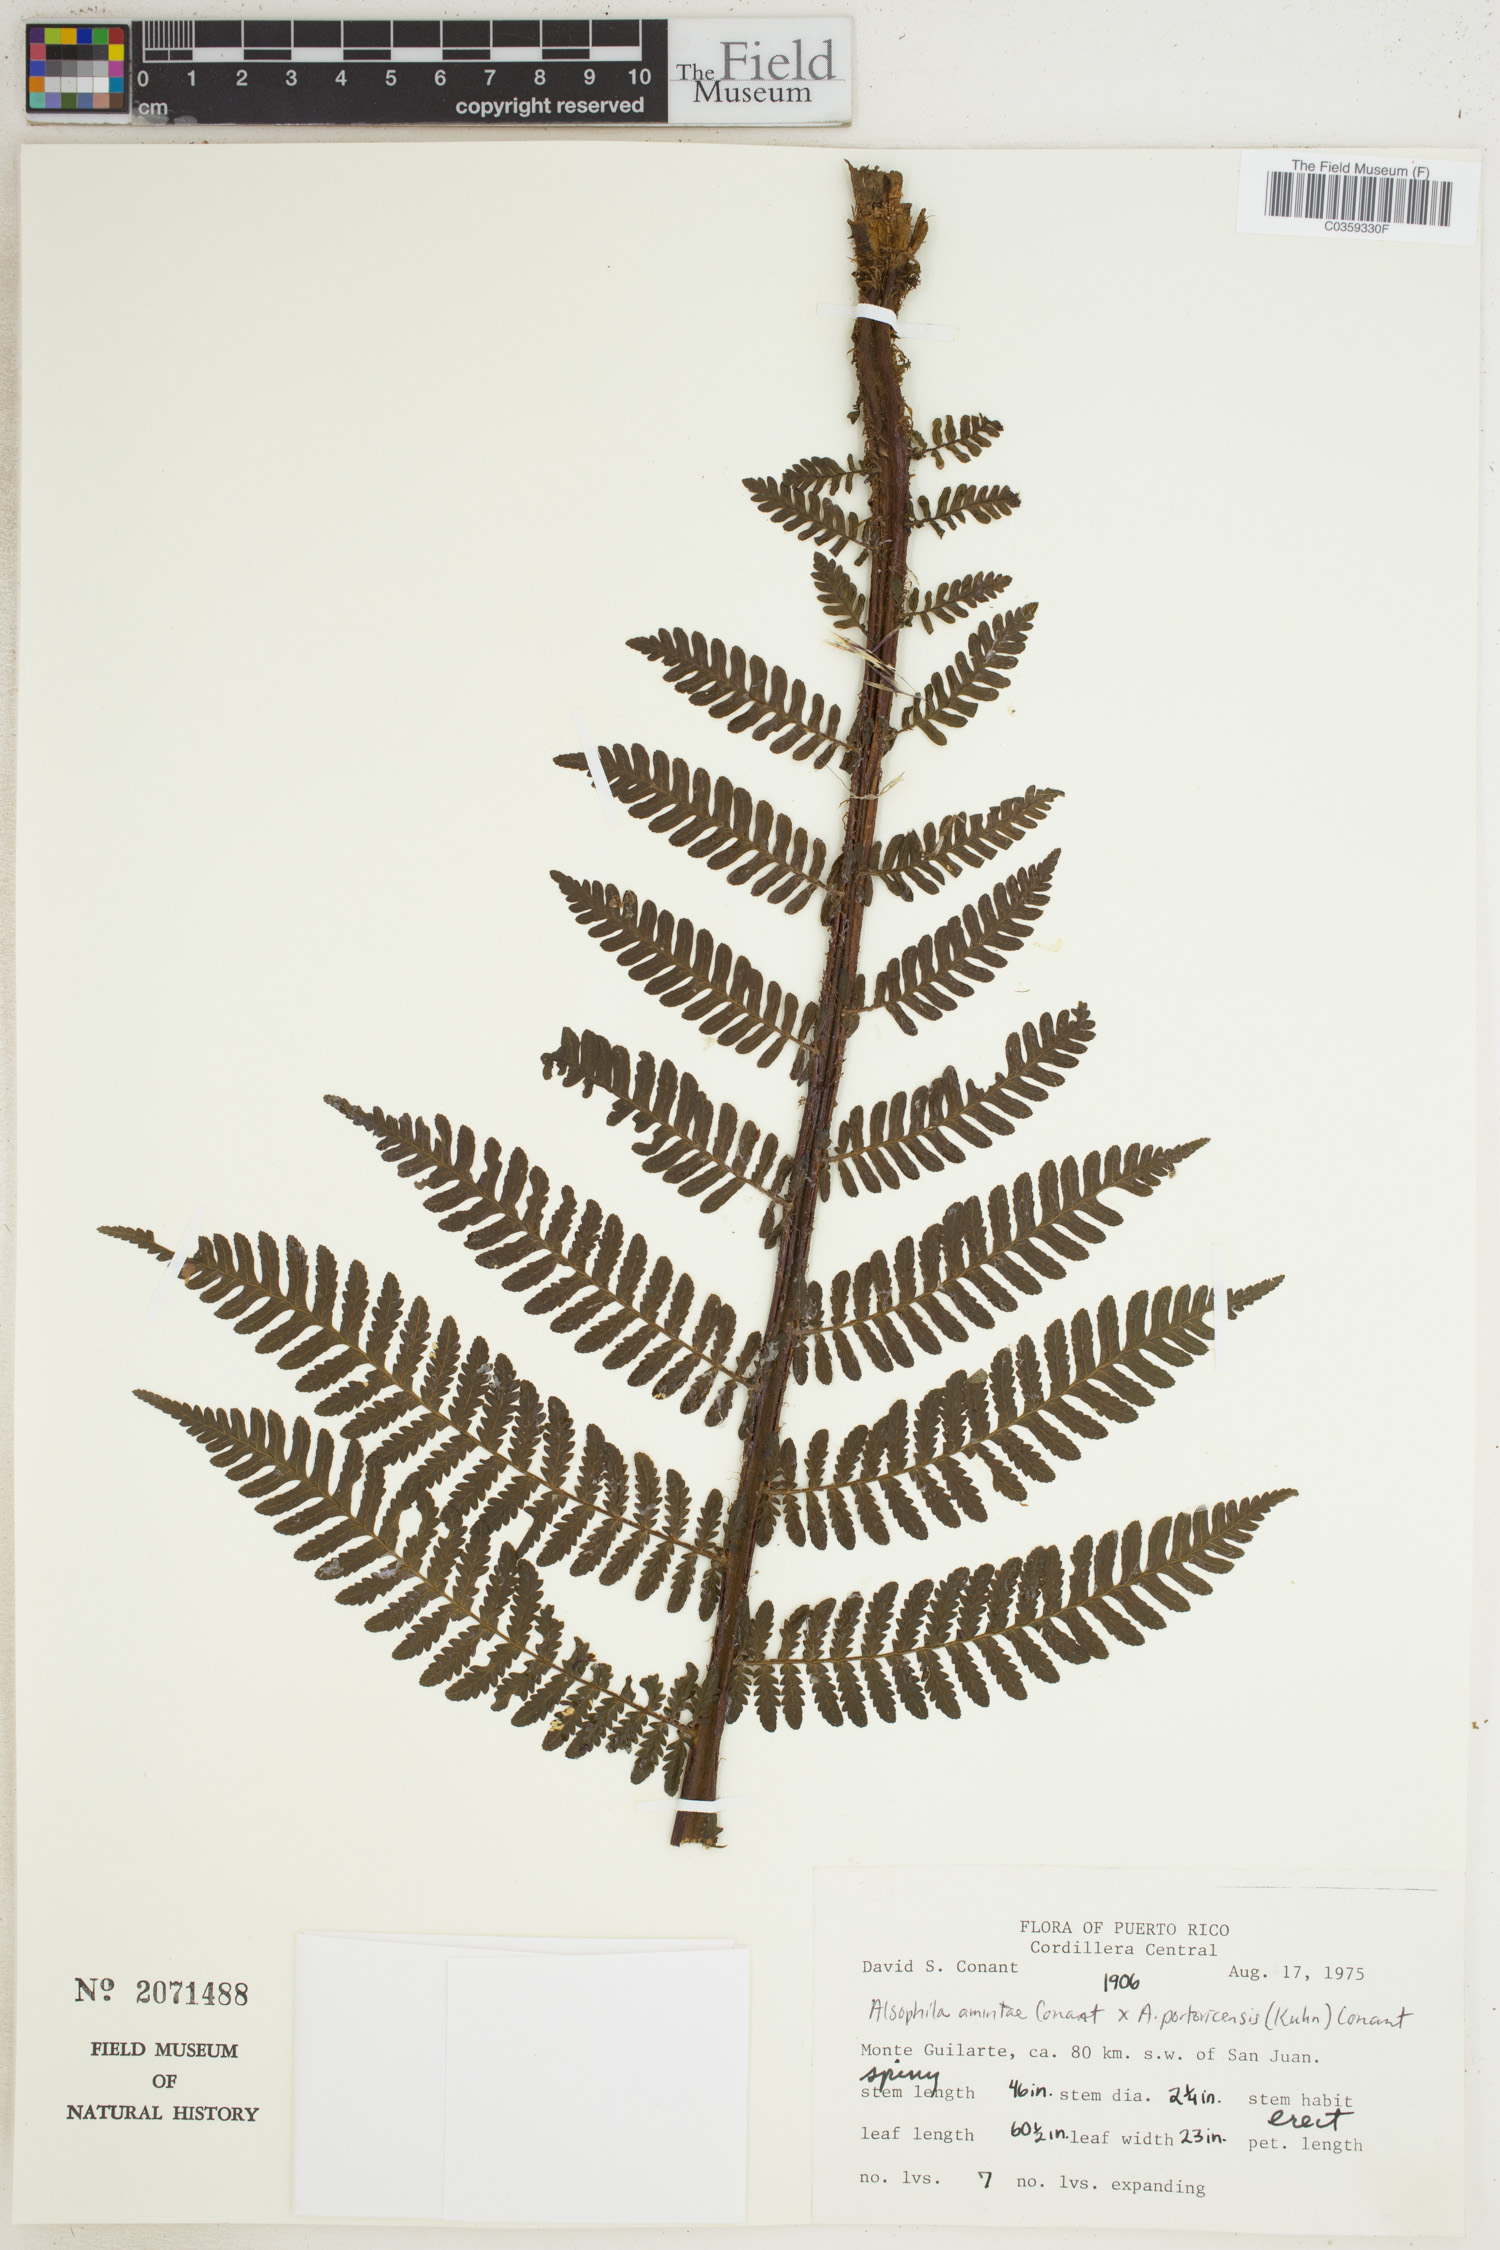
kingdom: Plantae
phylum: Tracheophyta
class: Polypodiopsida
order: Cyatheales
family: Cyatheaceae
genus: Alsophila
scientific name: Alsophila
